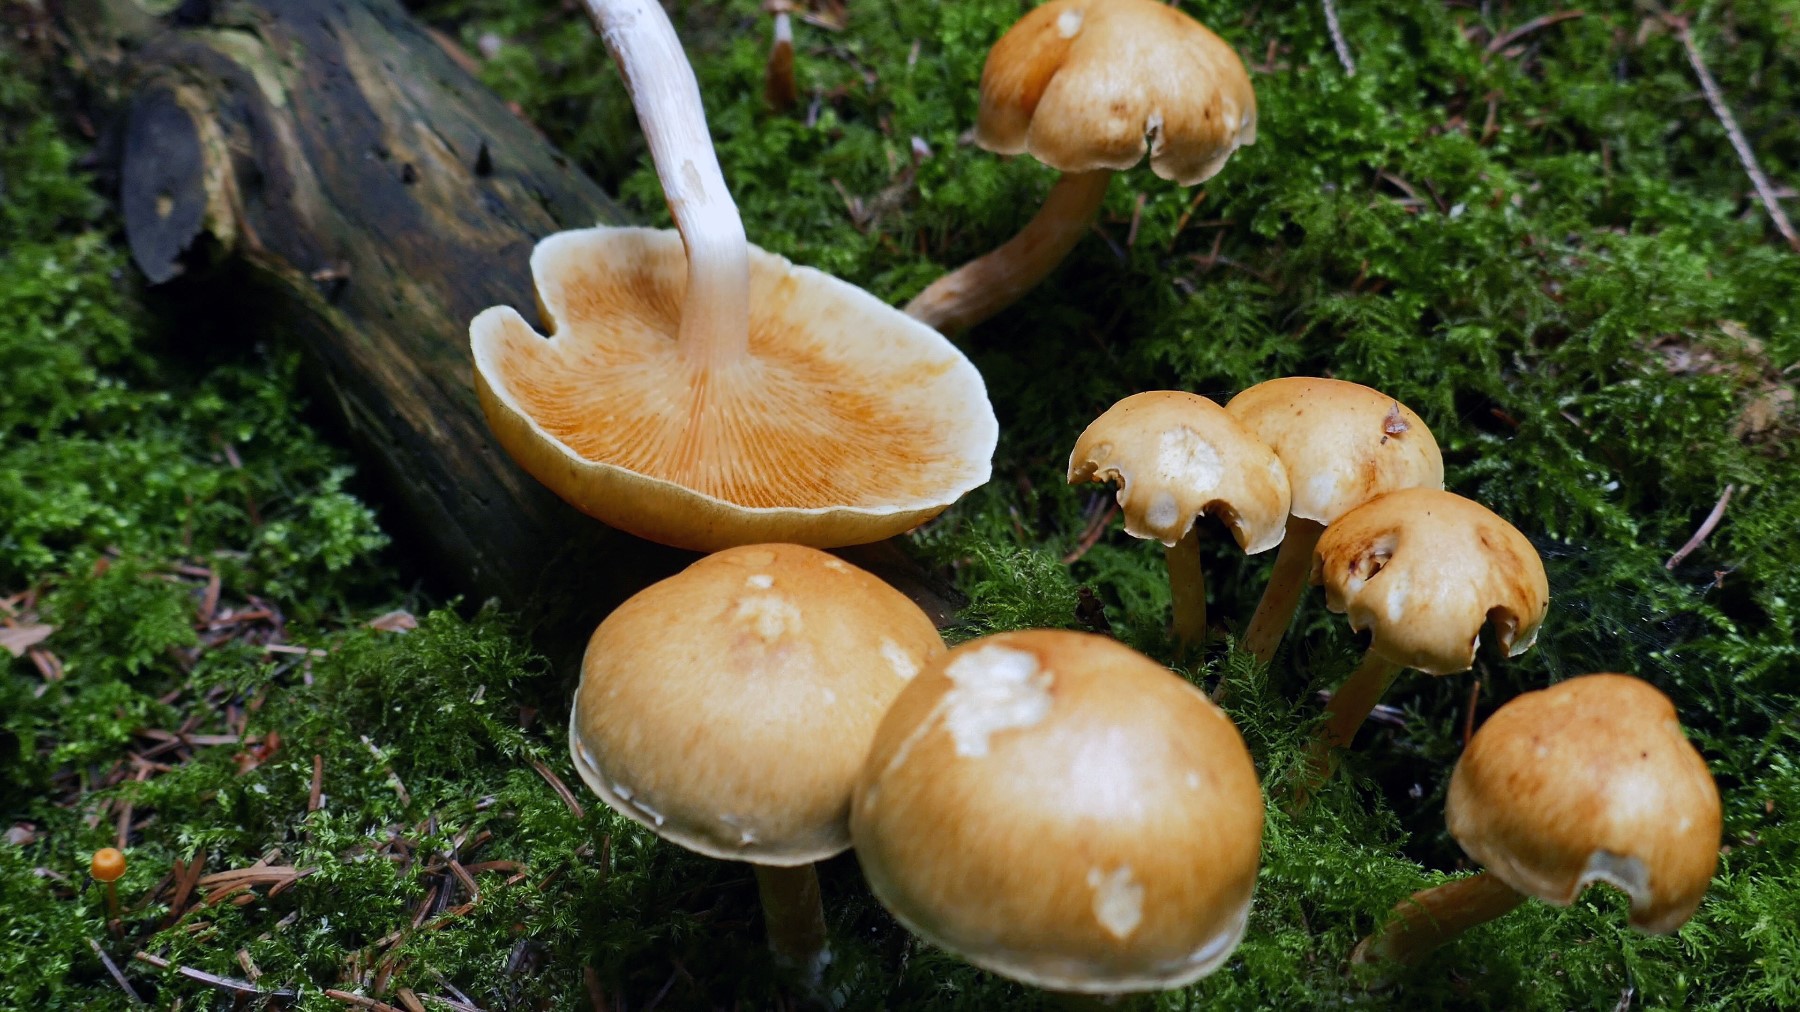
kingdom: Fungi
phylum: Basidiomycota
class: Agaricomycetes
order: Agaricales
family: Hymenogastraceae
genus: Gymnopilus
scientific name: Gymnopilus penetrans
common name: plettet flammehat
